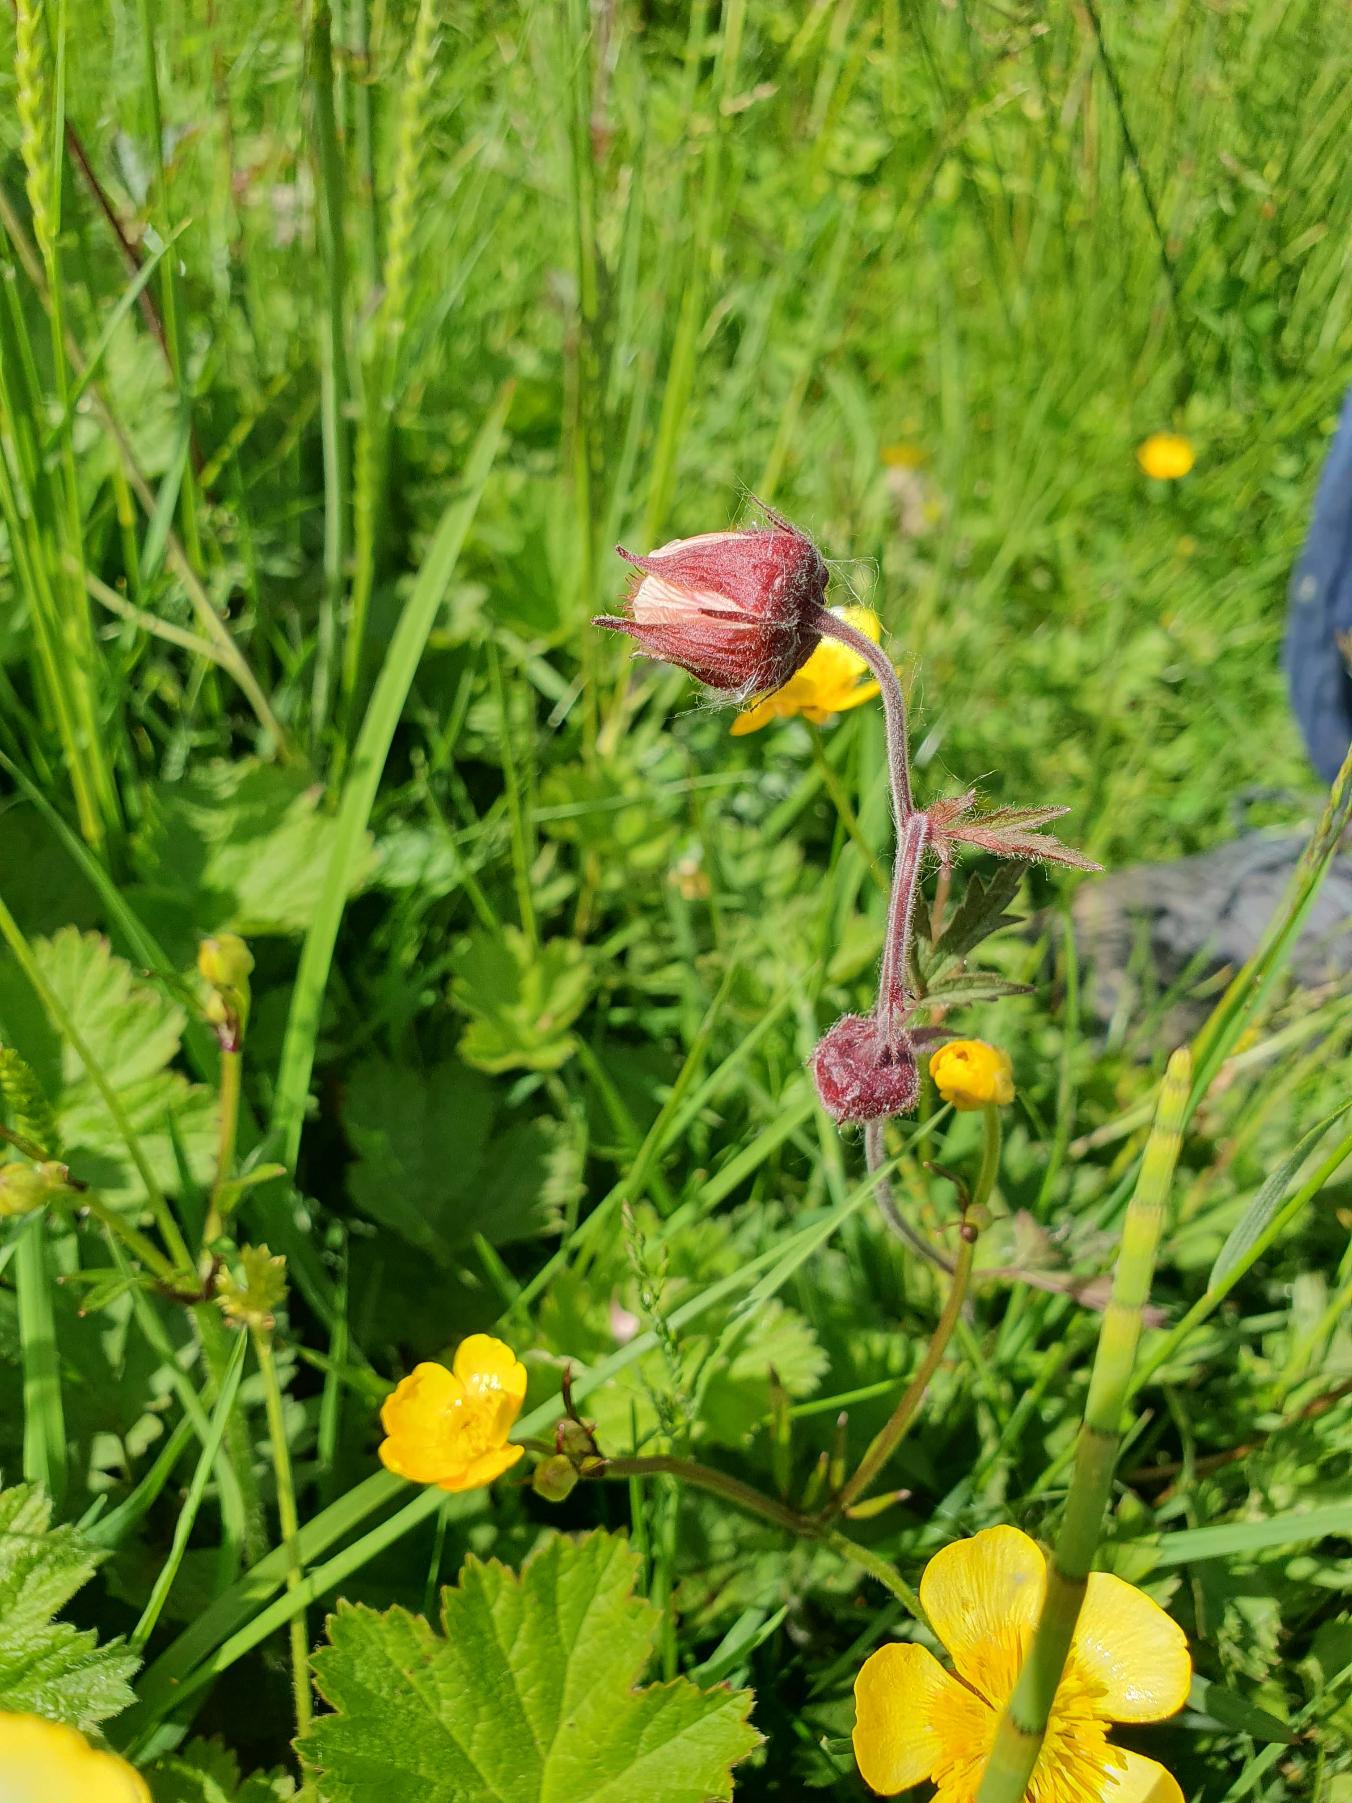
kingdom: Plantae
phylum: Tracheophyta
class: Magnoliopsida
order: Rosales
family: Rosaceae
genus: Geum
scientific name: Geum rivale
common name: Eng-nellikerod
